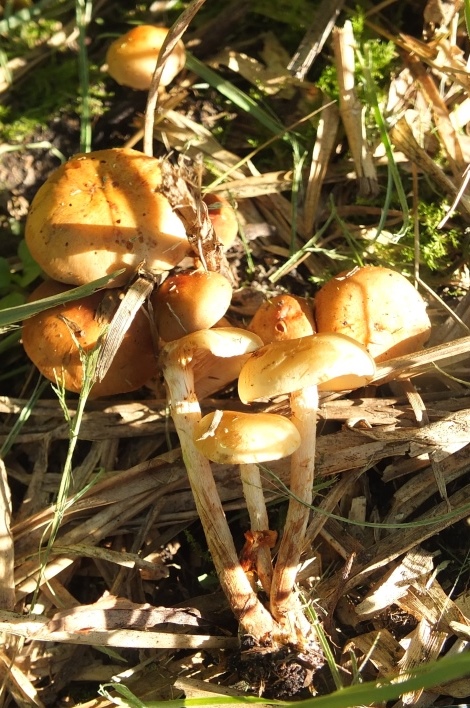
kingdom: Fungi
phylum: Basidiomycota
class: Agaricomycetes
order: Agaricales
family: Strophariaceae
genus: Pholiota
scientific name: Pholiota conissans
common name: pile-skælhat
